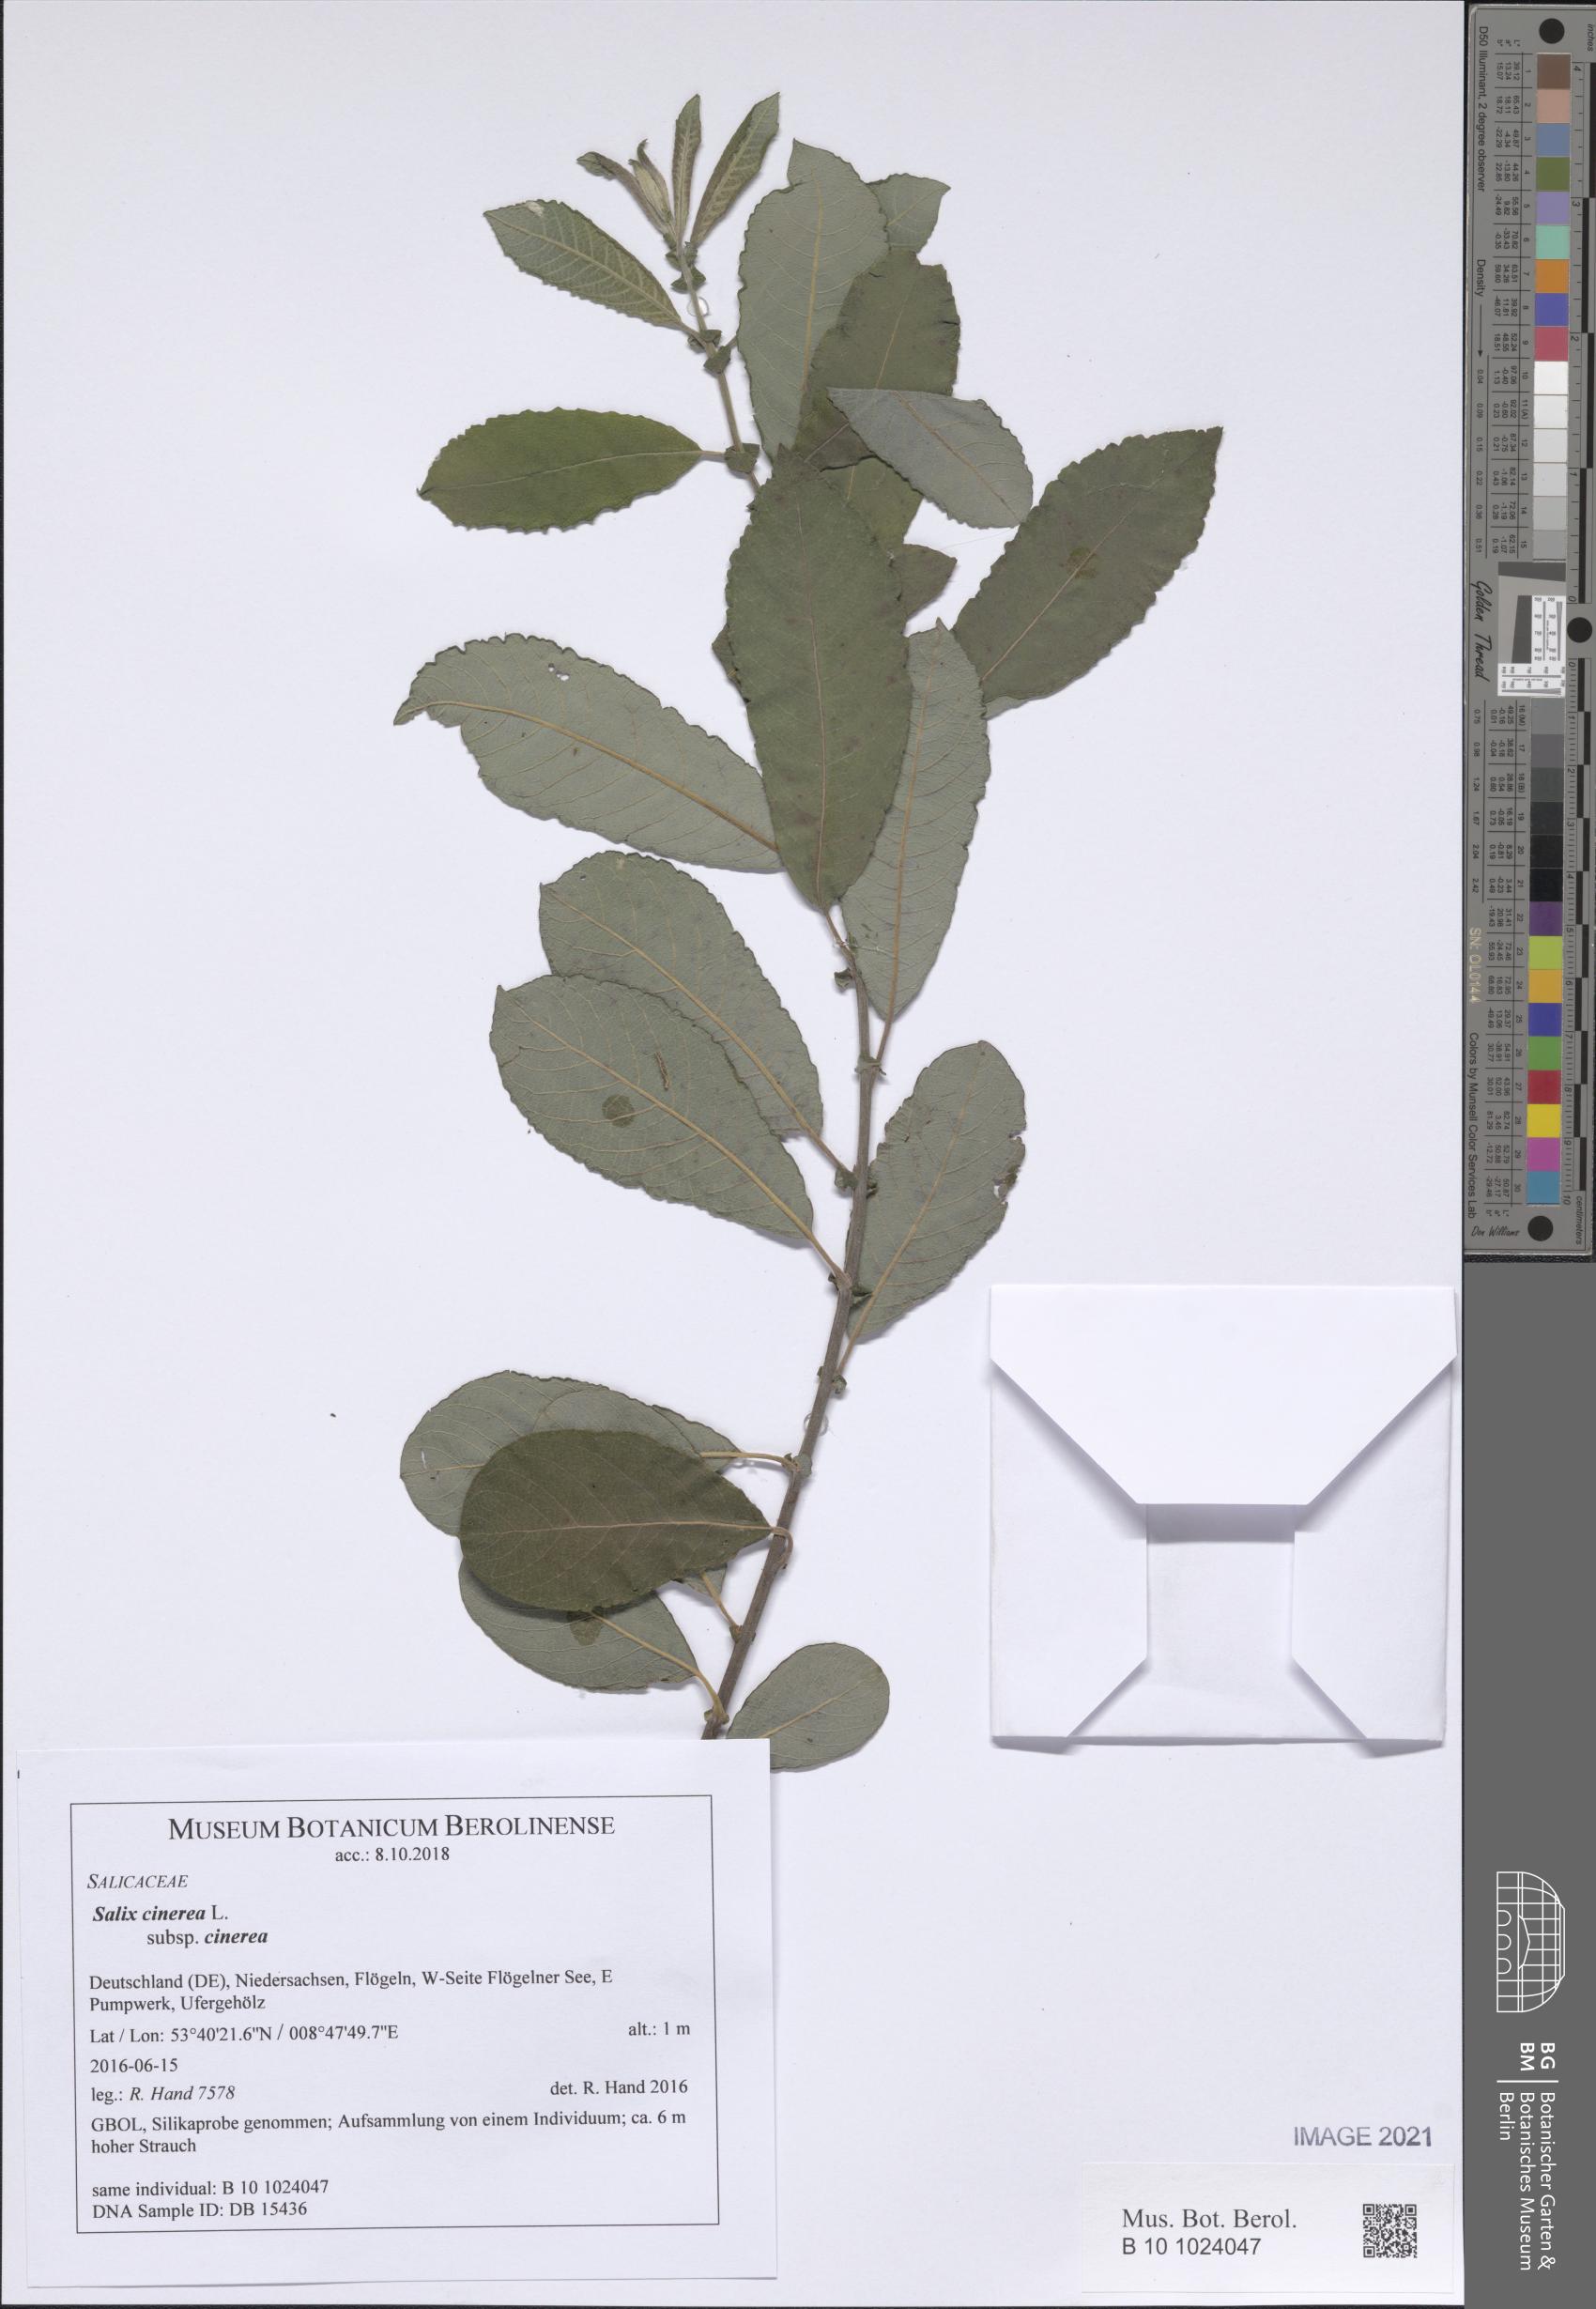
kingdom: Plantae
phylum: Tracheophyta
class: Magnoliopsida
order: Malpighiales
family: Salicaceae
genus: Salix
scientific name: Salix cinerea
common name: Common sallow
